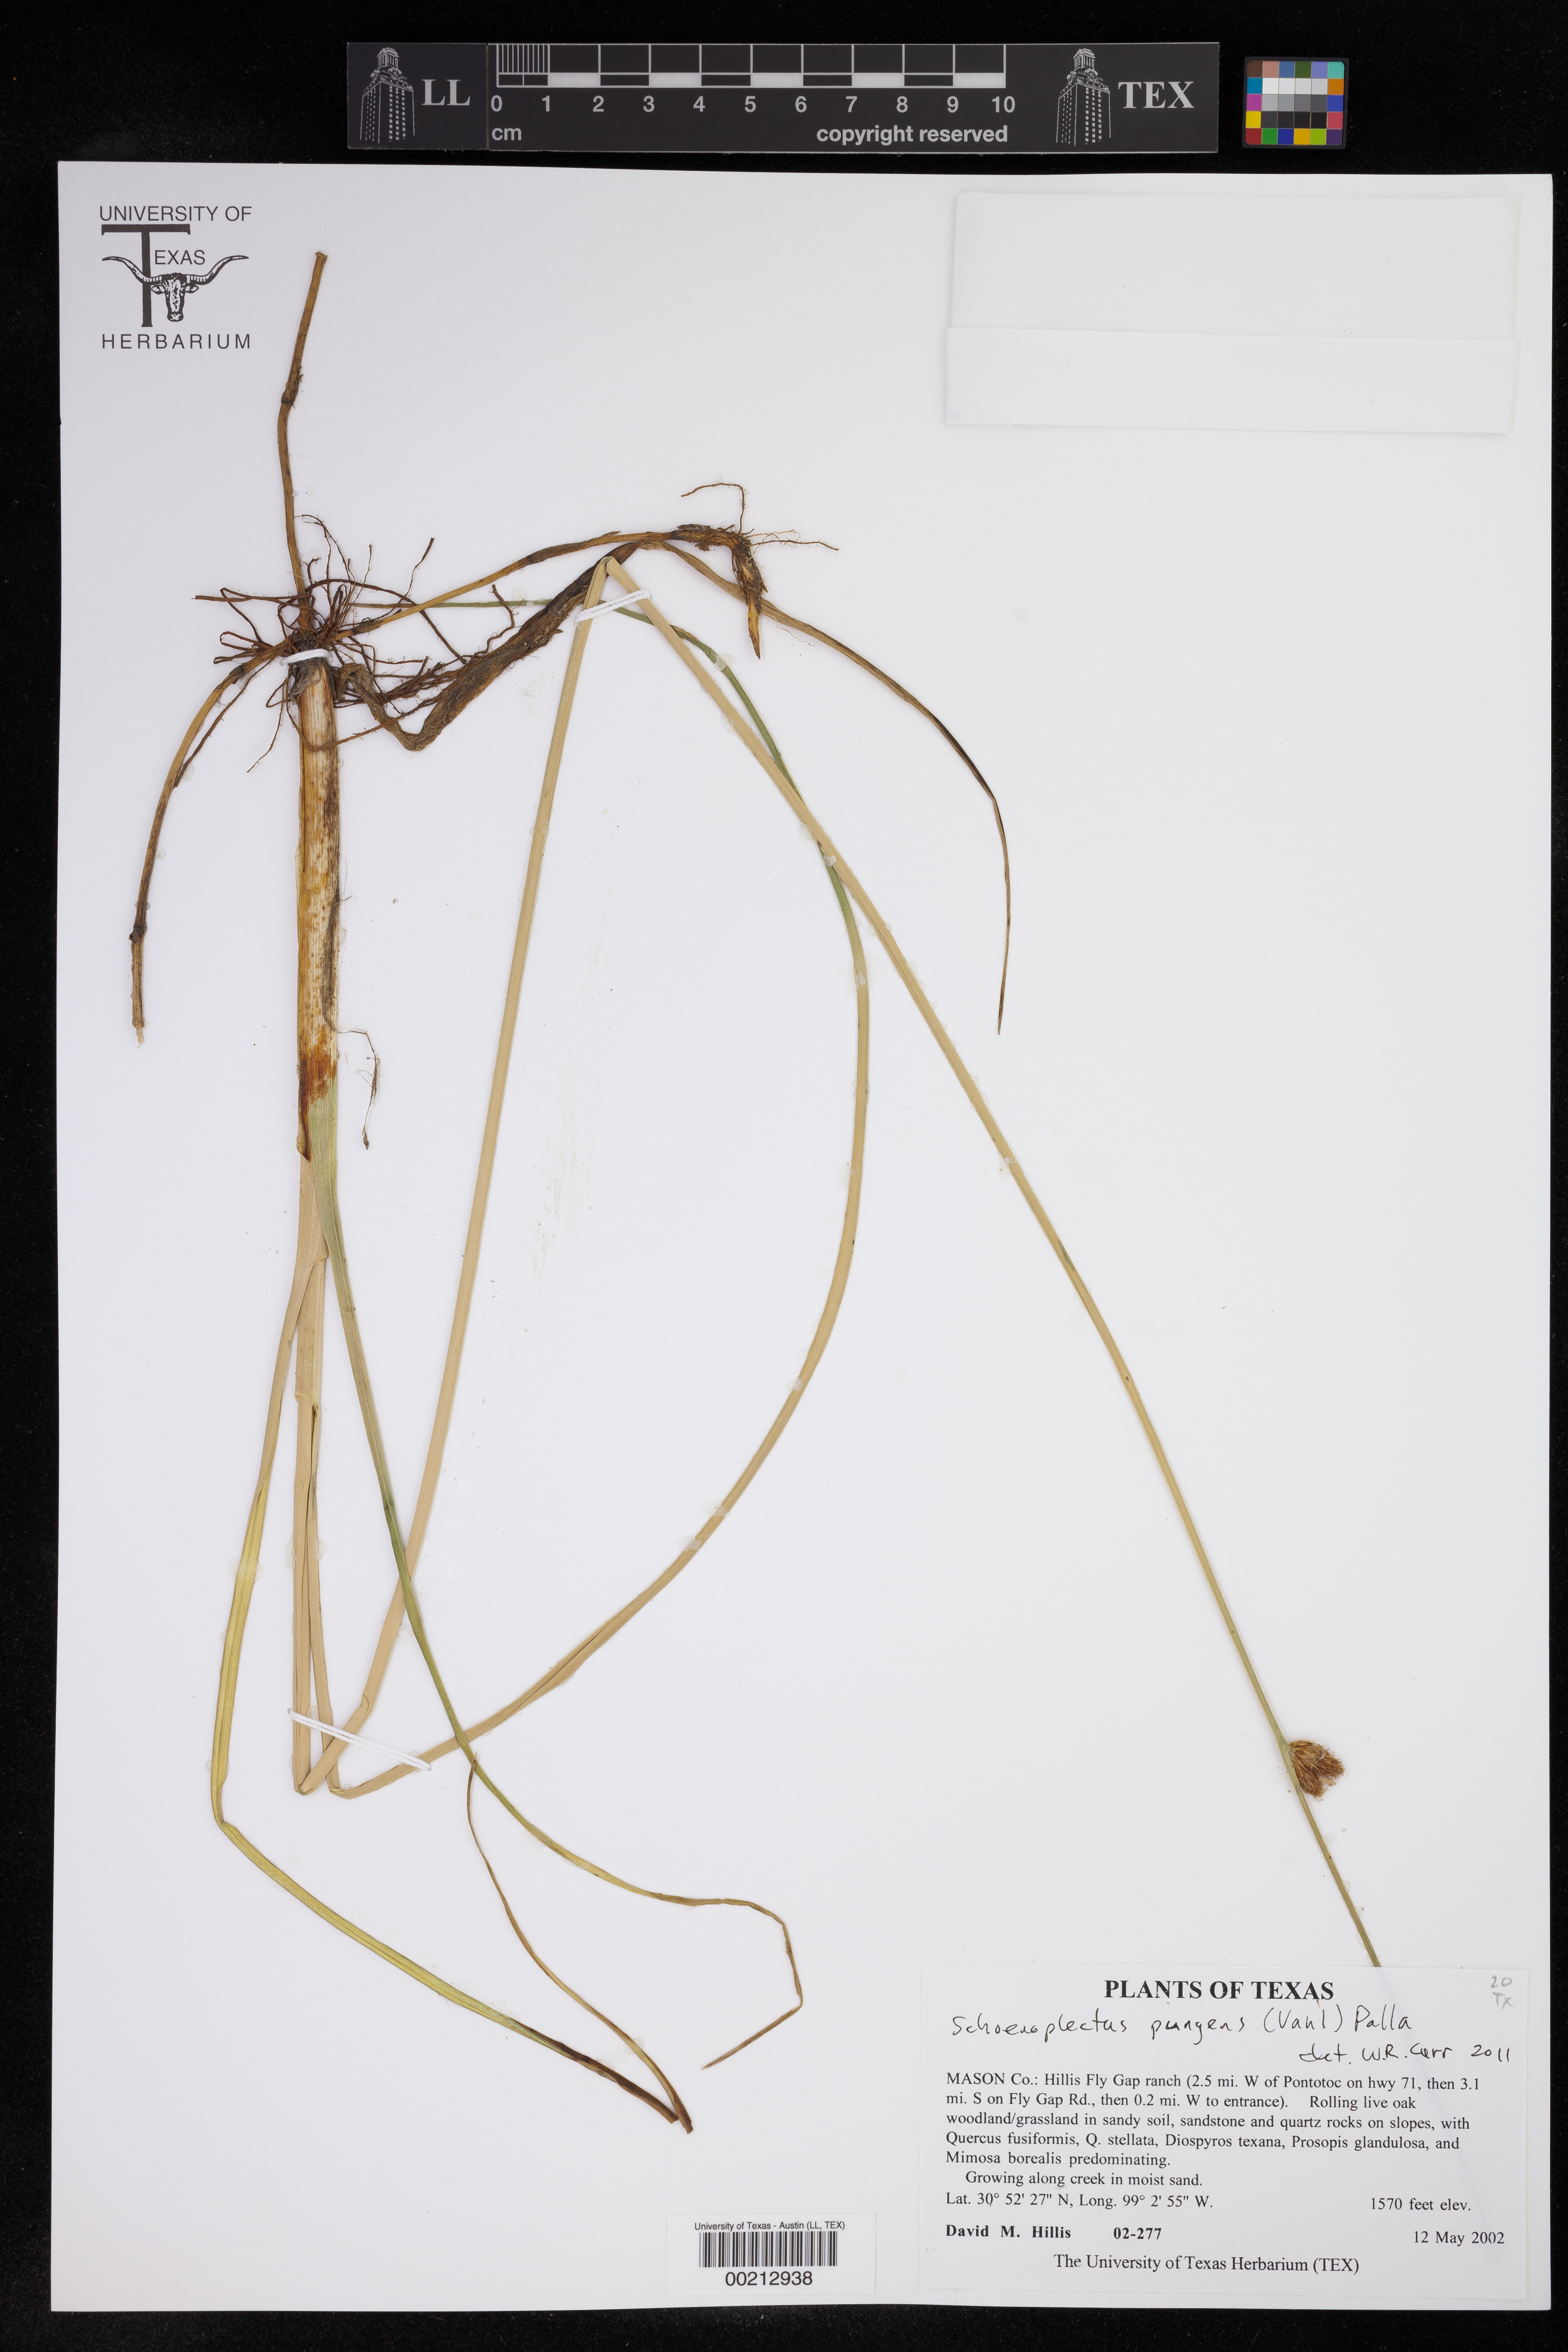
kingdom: Plantae
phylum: Tracheophyta
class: Liliopsida
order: Poales
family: Cyperaceae
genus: Schoenoplectus
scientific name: Schoenoplectus pungens
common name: Sharp club-rush
